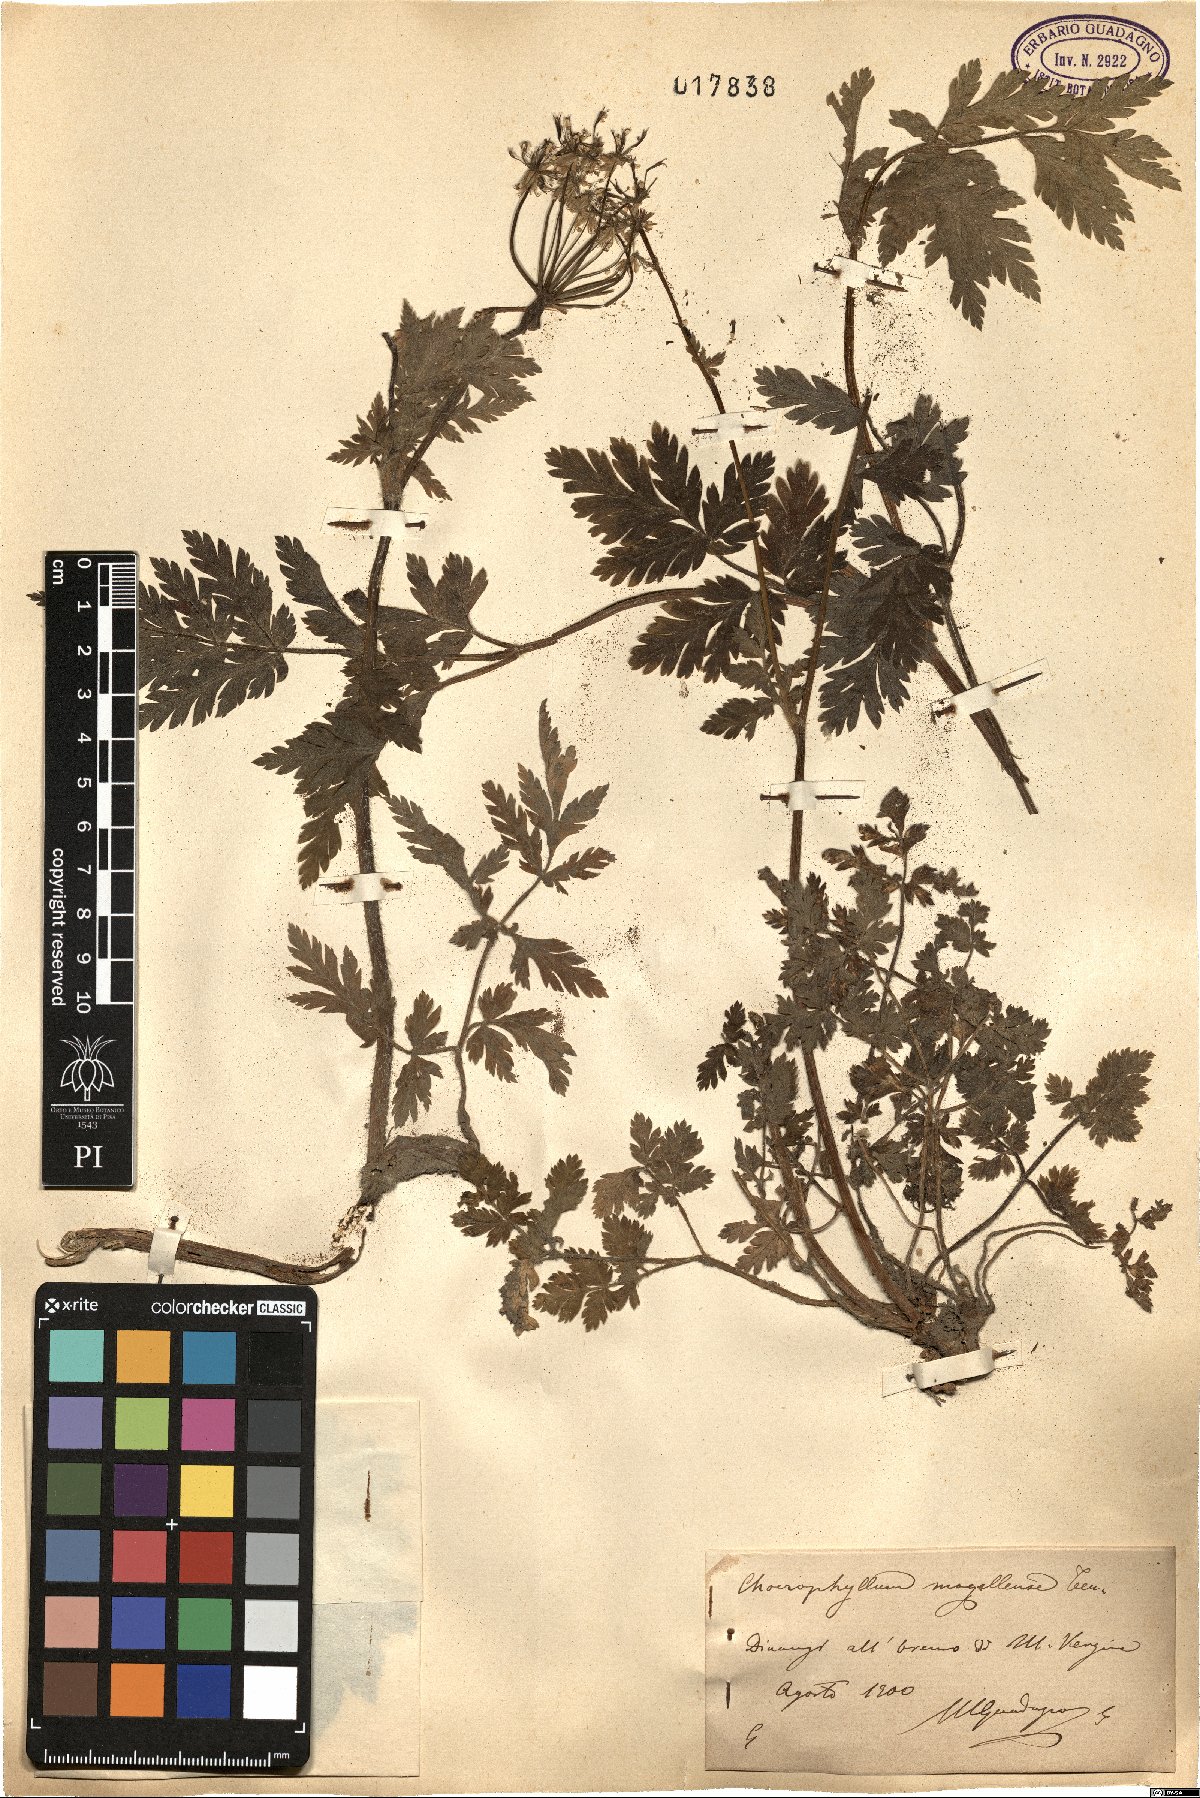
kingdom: Plantae
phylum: Tracheophyta
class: Magnoliopsida
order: Apiales
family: Apiaceae
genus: Chaerophyllum
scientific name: Chaerophyllum hirsutum
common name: Hairy chervil
